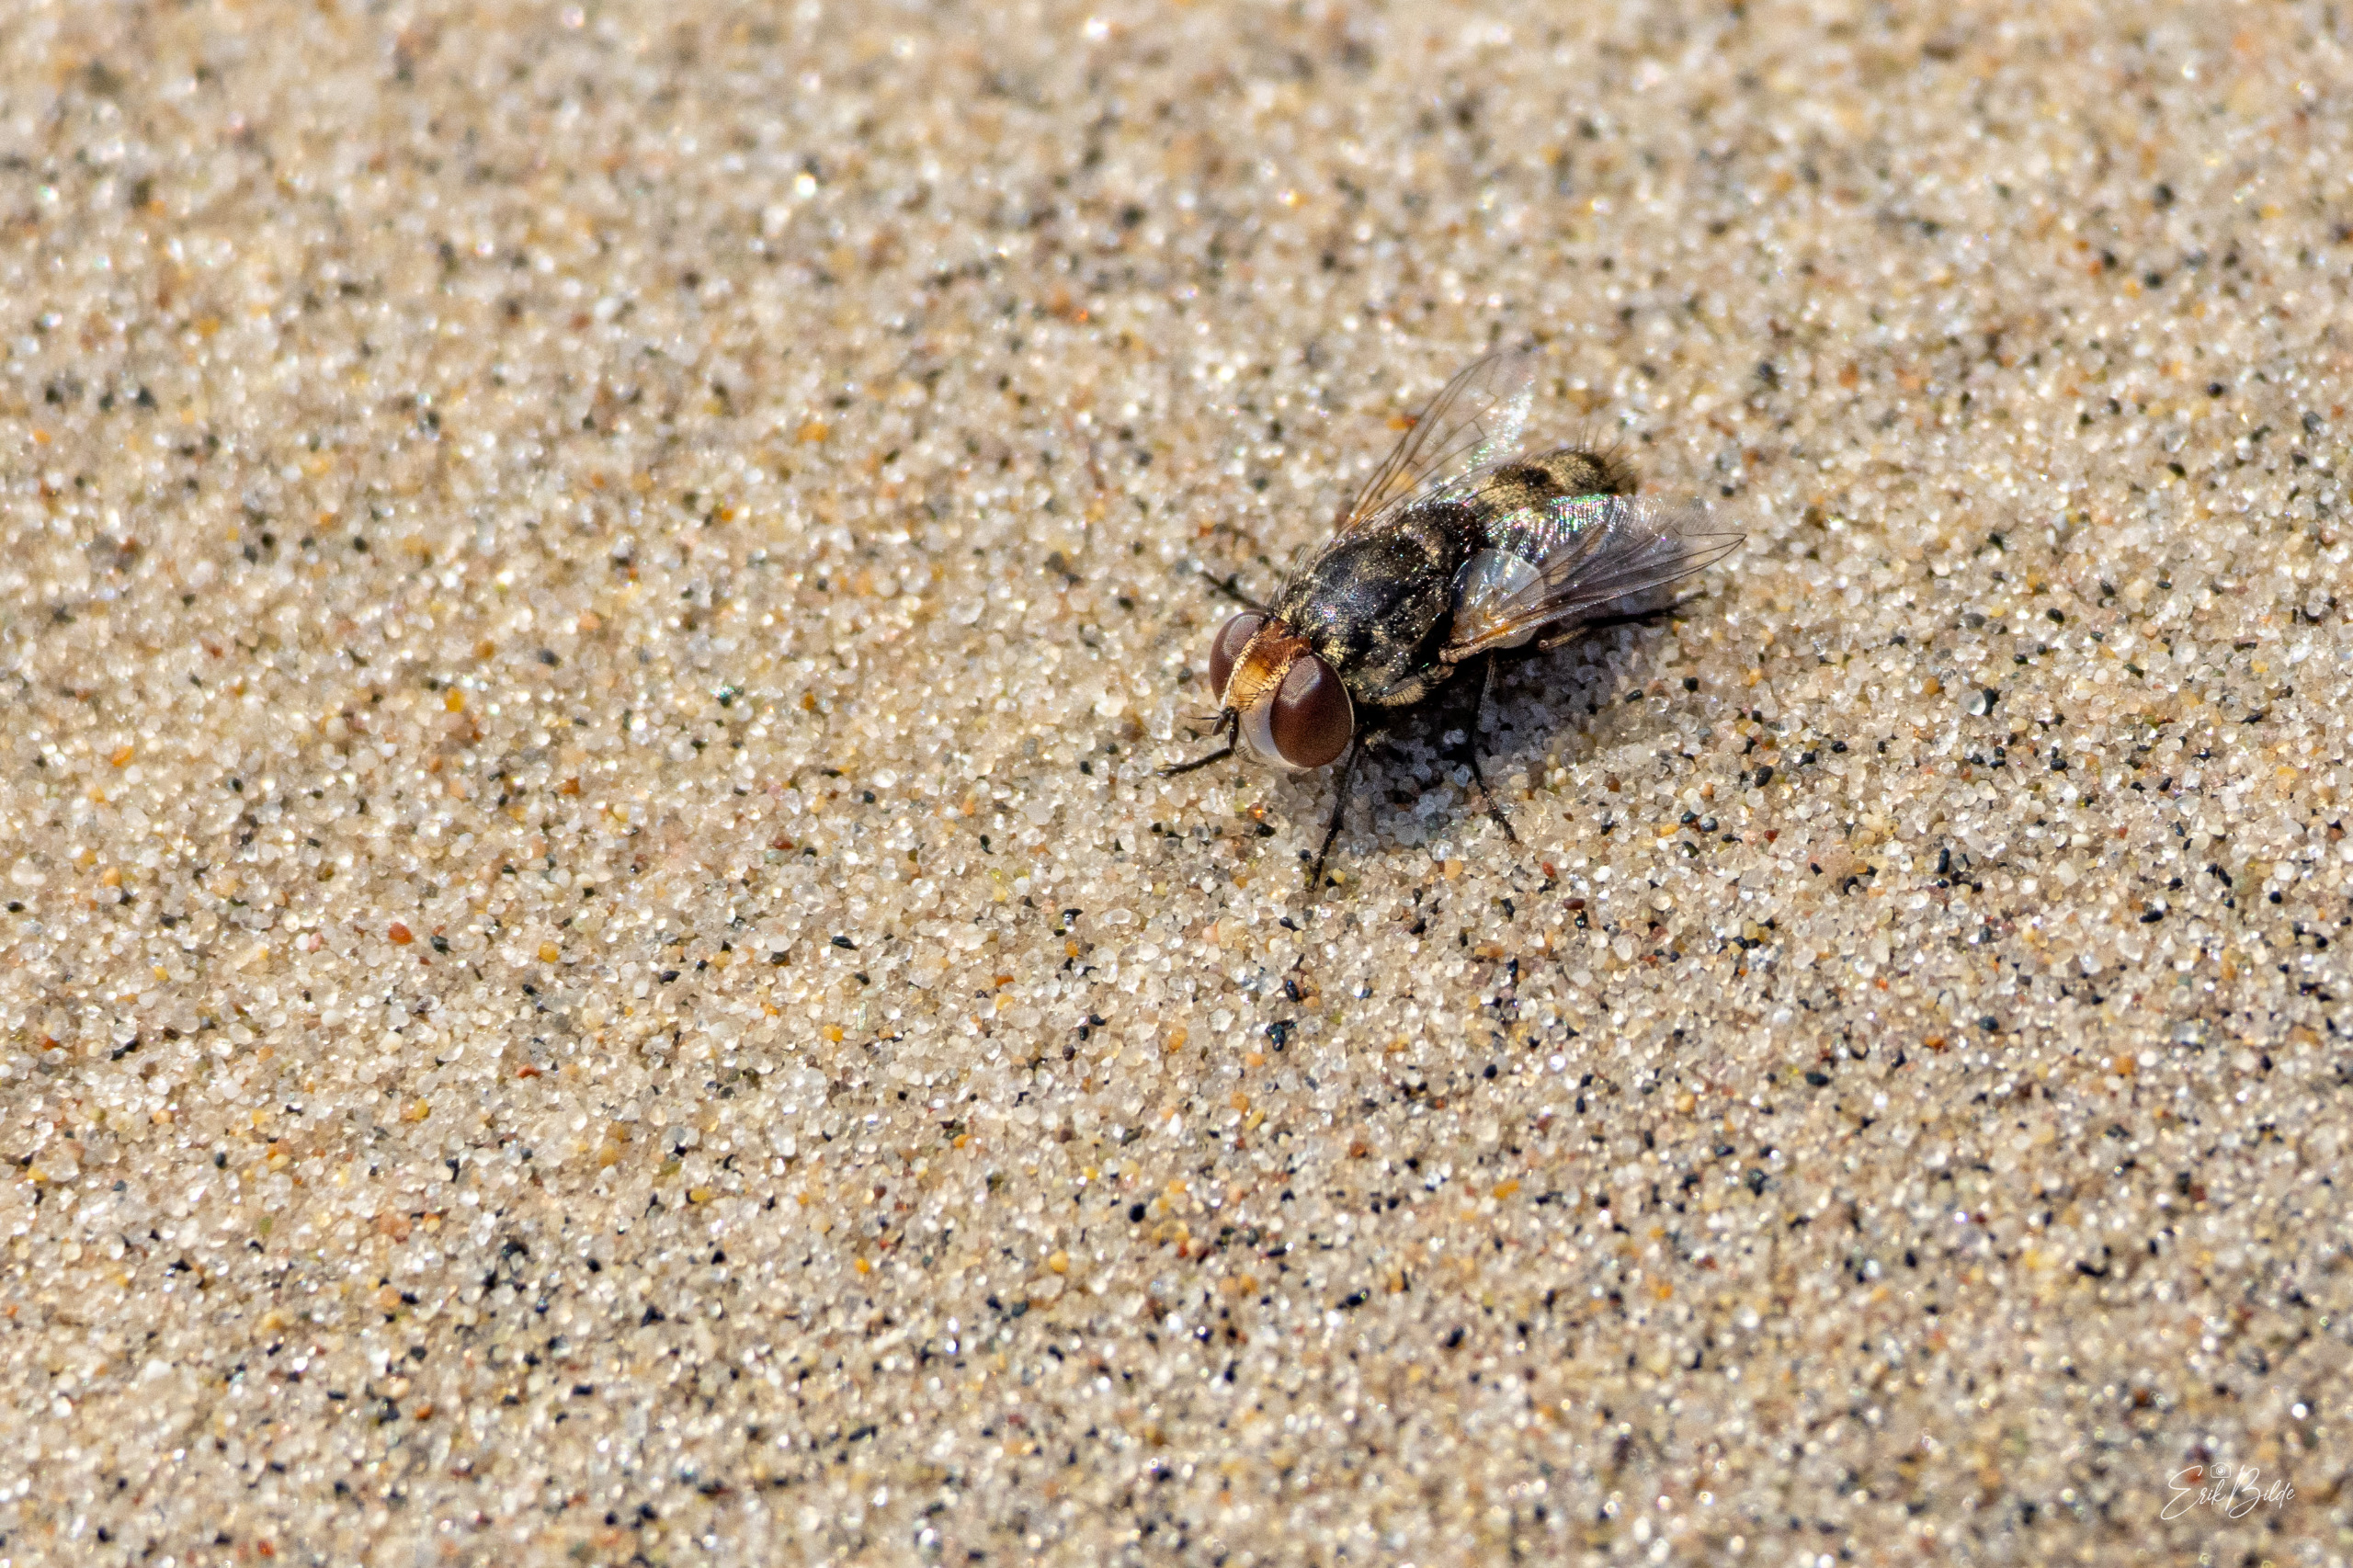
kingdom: Animalia
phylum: Arthropoda
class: Insecta
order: Diptera
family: Sarcophagidae
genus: Miltogramma
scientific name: Miltogramma punctata
